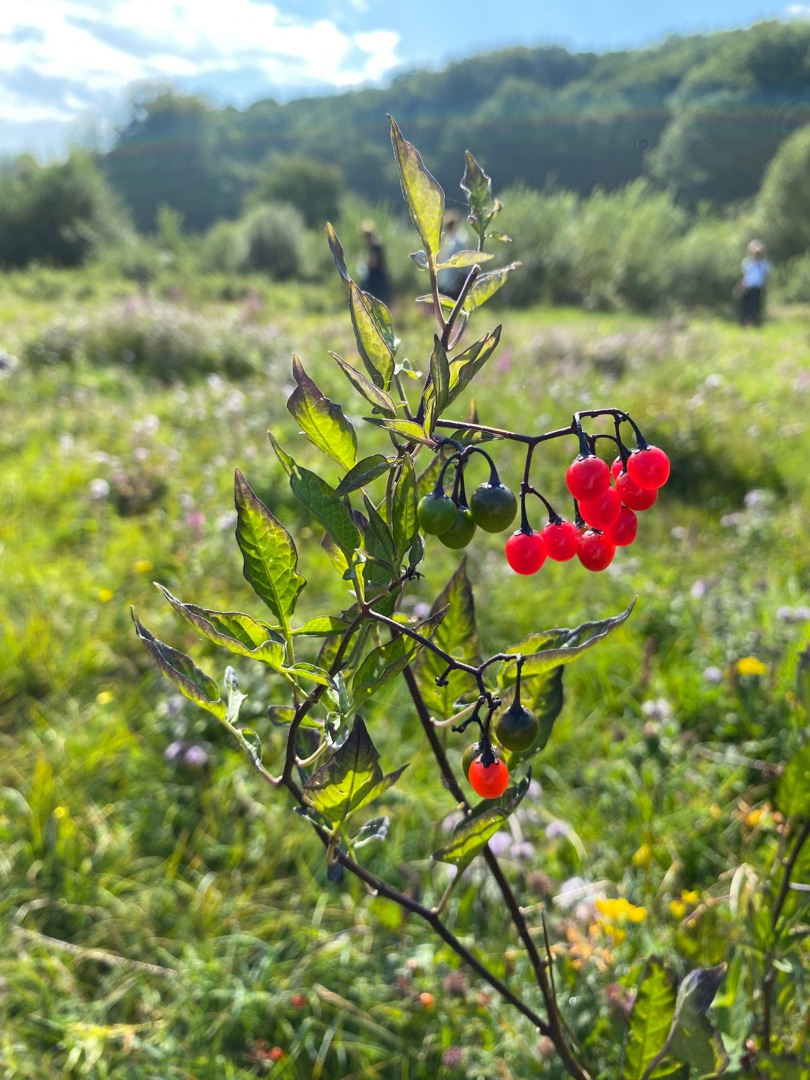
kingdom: Plantae
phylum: Tracheophyta
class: Magnoliopsida
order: Solanales
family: Solanaceae
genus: Solanum
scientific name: Solanum dulcamara
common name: Bittersød natskygge
